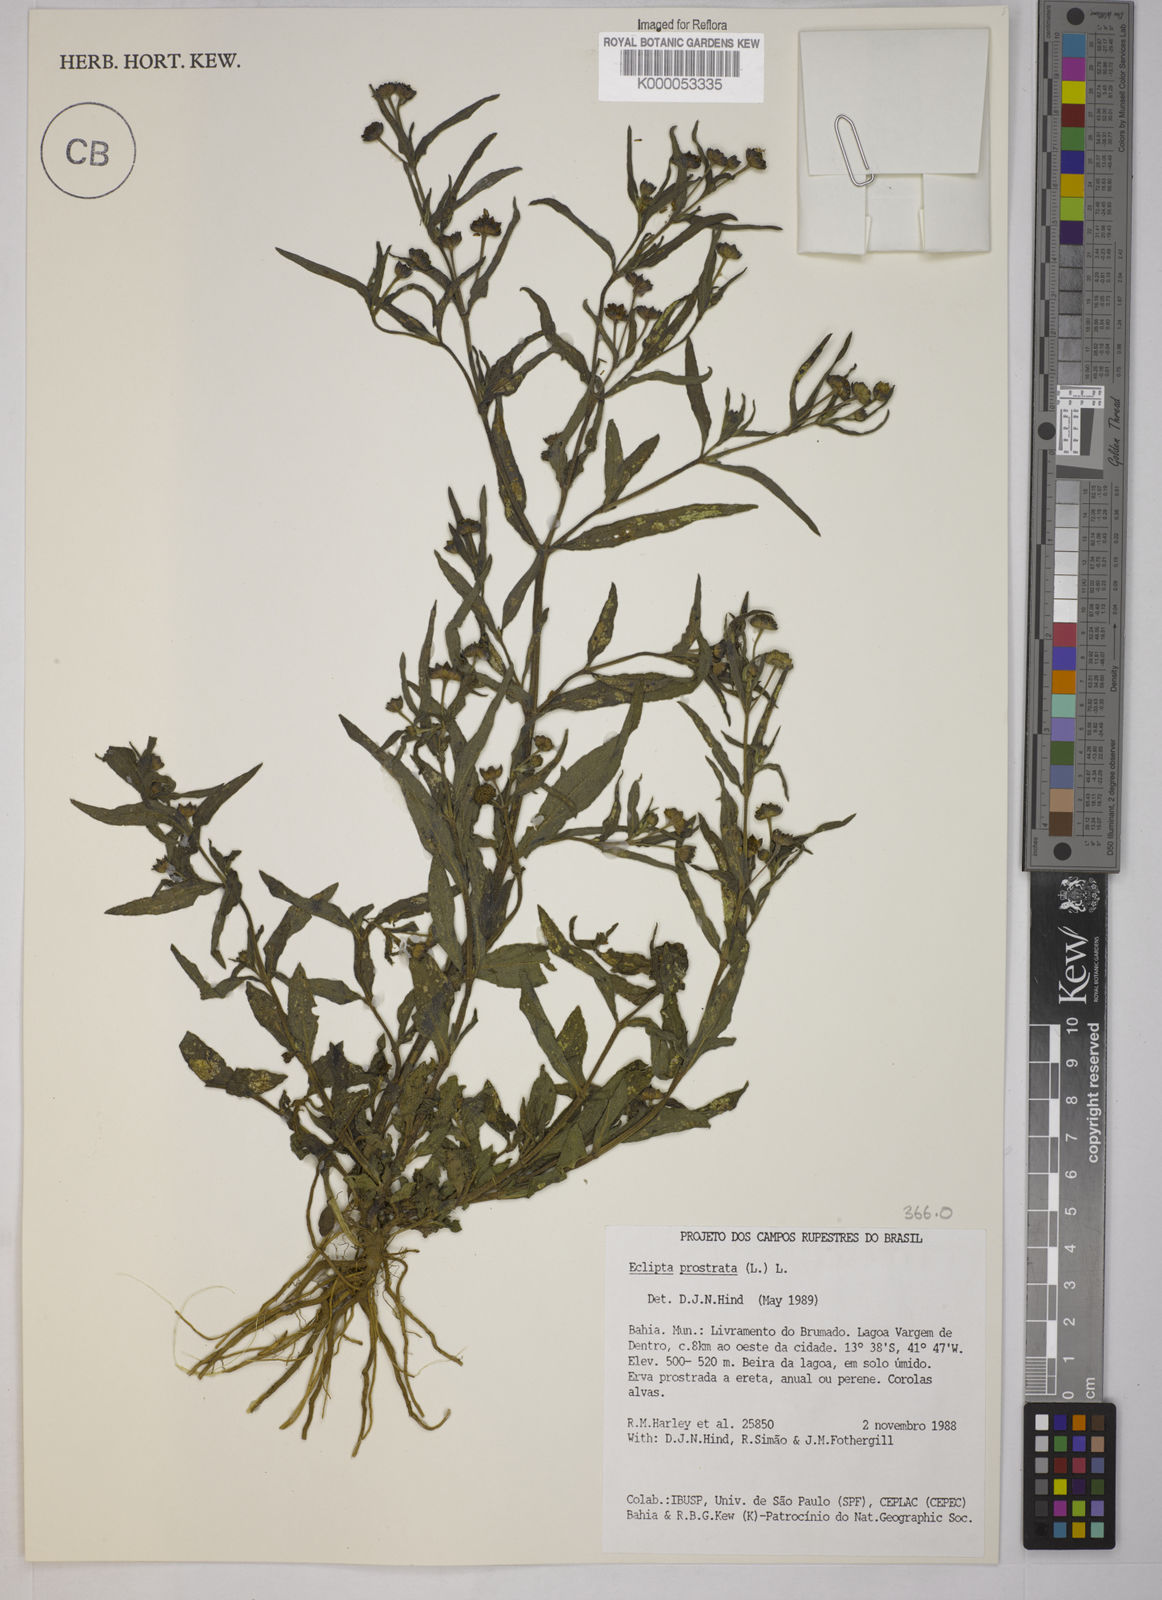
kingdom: Plantae
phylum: Tracheophyta
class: Magnoliopsida
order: Asterales
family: Asteraceae
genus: Eclipta
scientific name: Eclipta prostrata
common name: False daisy
